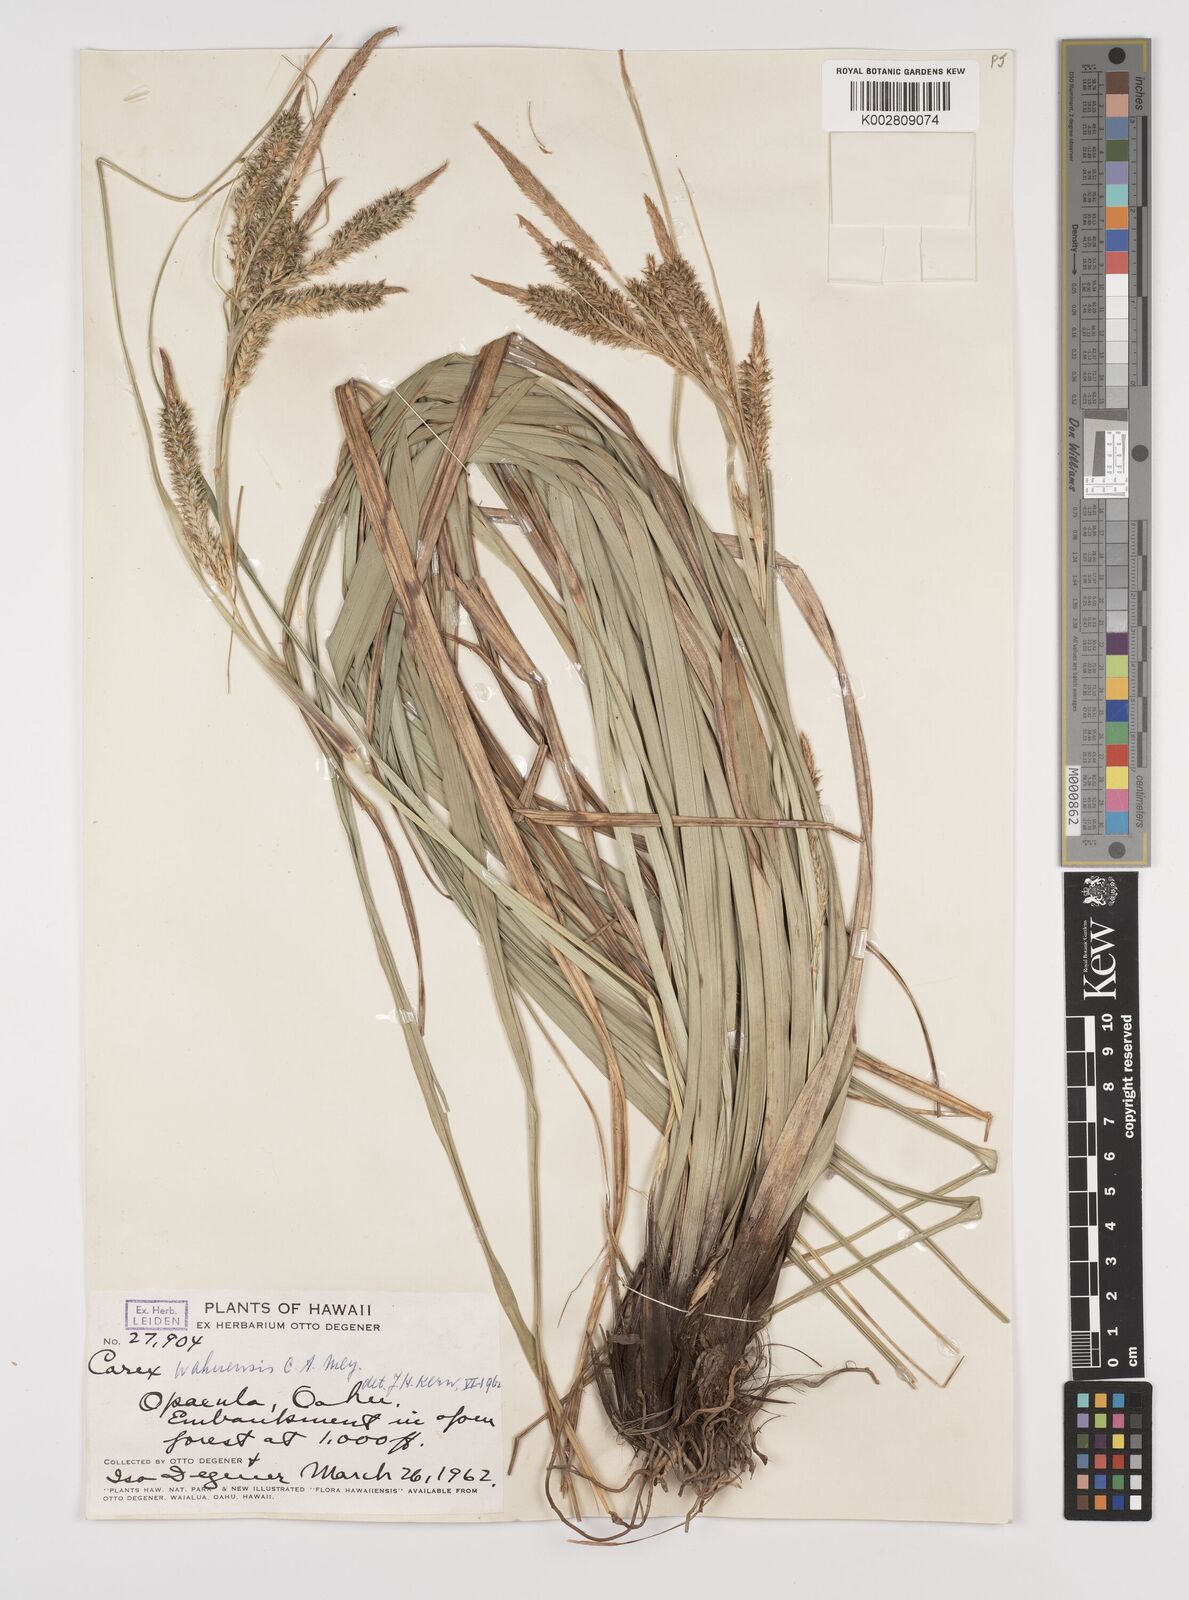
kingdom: Plantae
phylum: Tracheophyta
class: Liliopsida
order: Poales
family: Cyperaceae
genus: Carex
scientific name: Carex wahuensis
